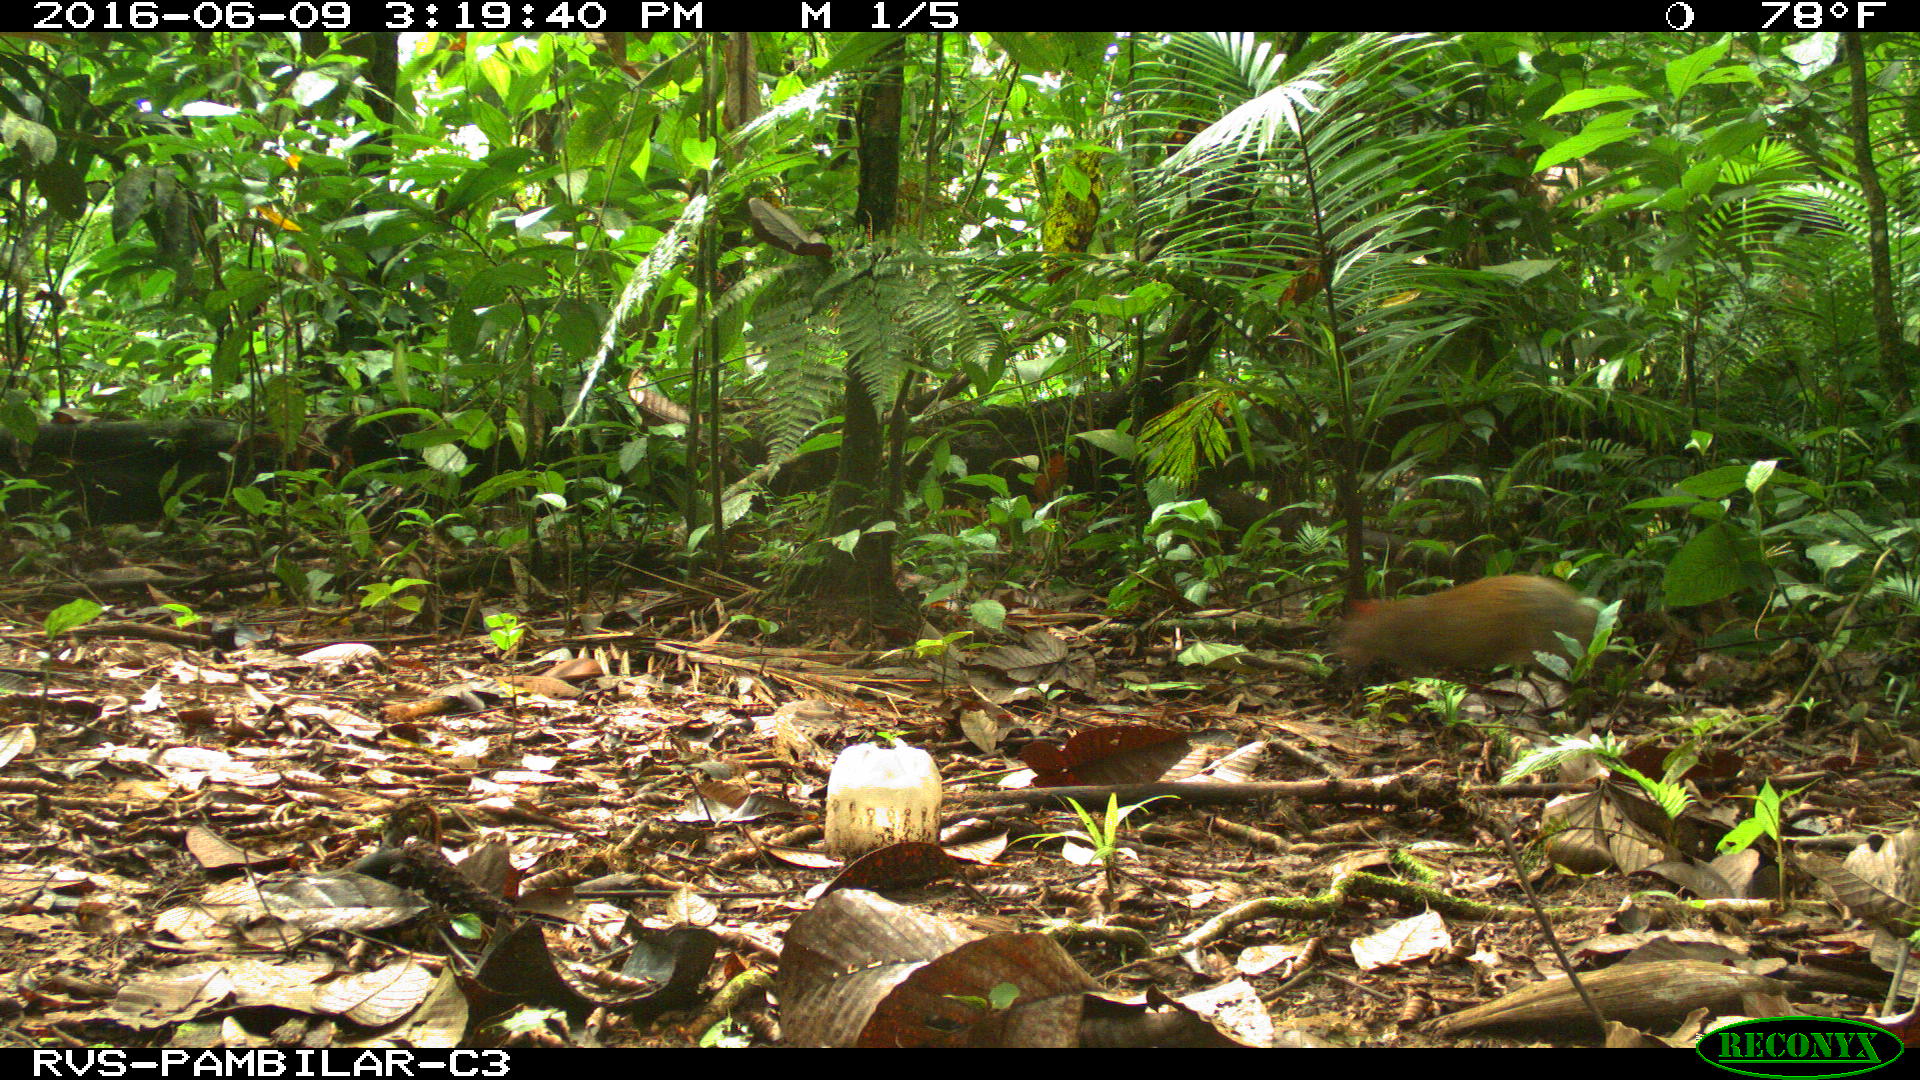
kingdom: Animalia
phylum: Chordata
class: Mammalia
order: Rodentia
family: Dasyproctidae
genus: Dasyprocta
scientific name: Dasyprocta punctata
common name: Central american agouti
